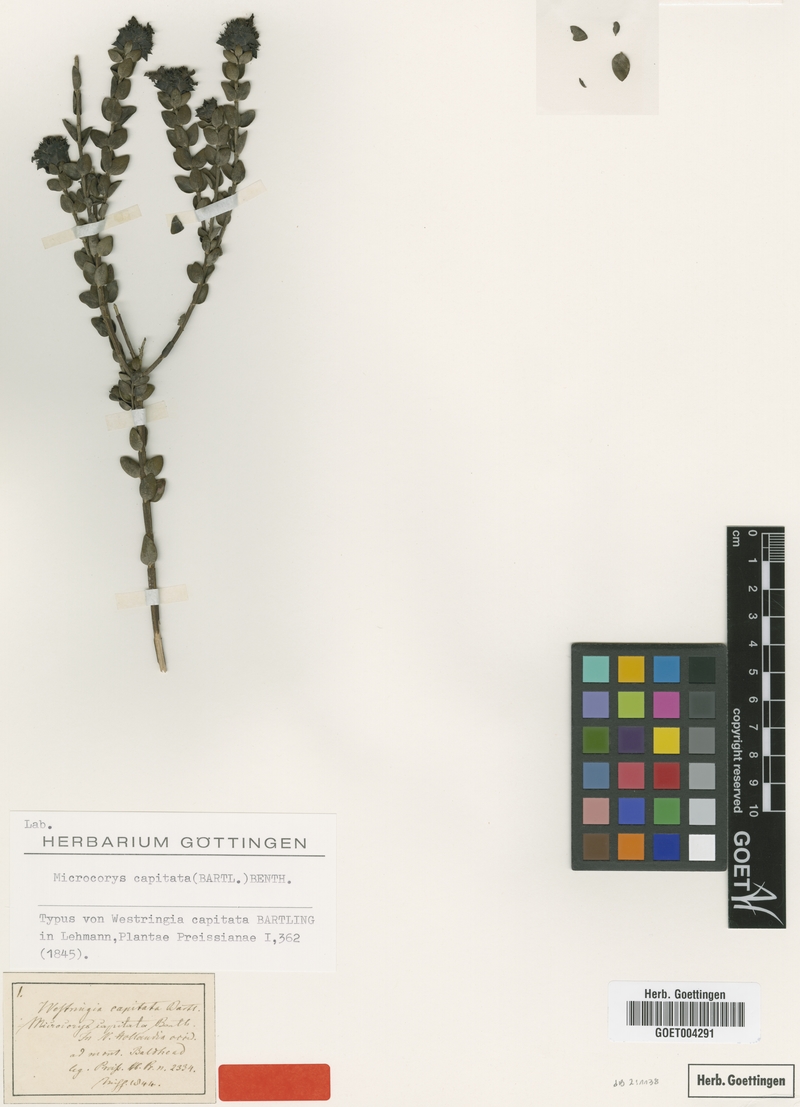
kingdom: Plantae
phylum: Tracheophyta
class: Magnoliopsida
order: Lamiales
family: Lamiaceae
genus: Microcorys
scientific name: Microcorys capitata
